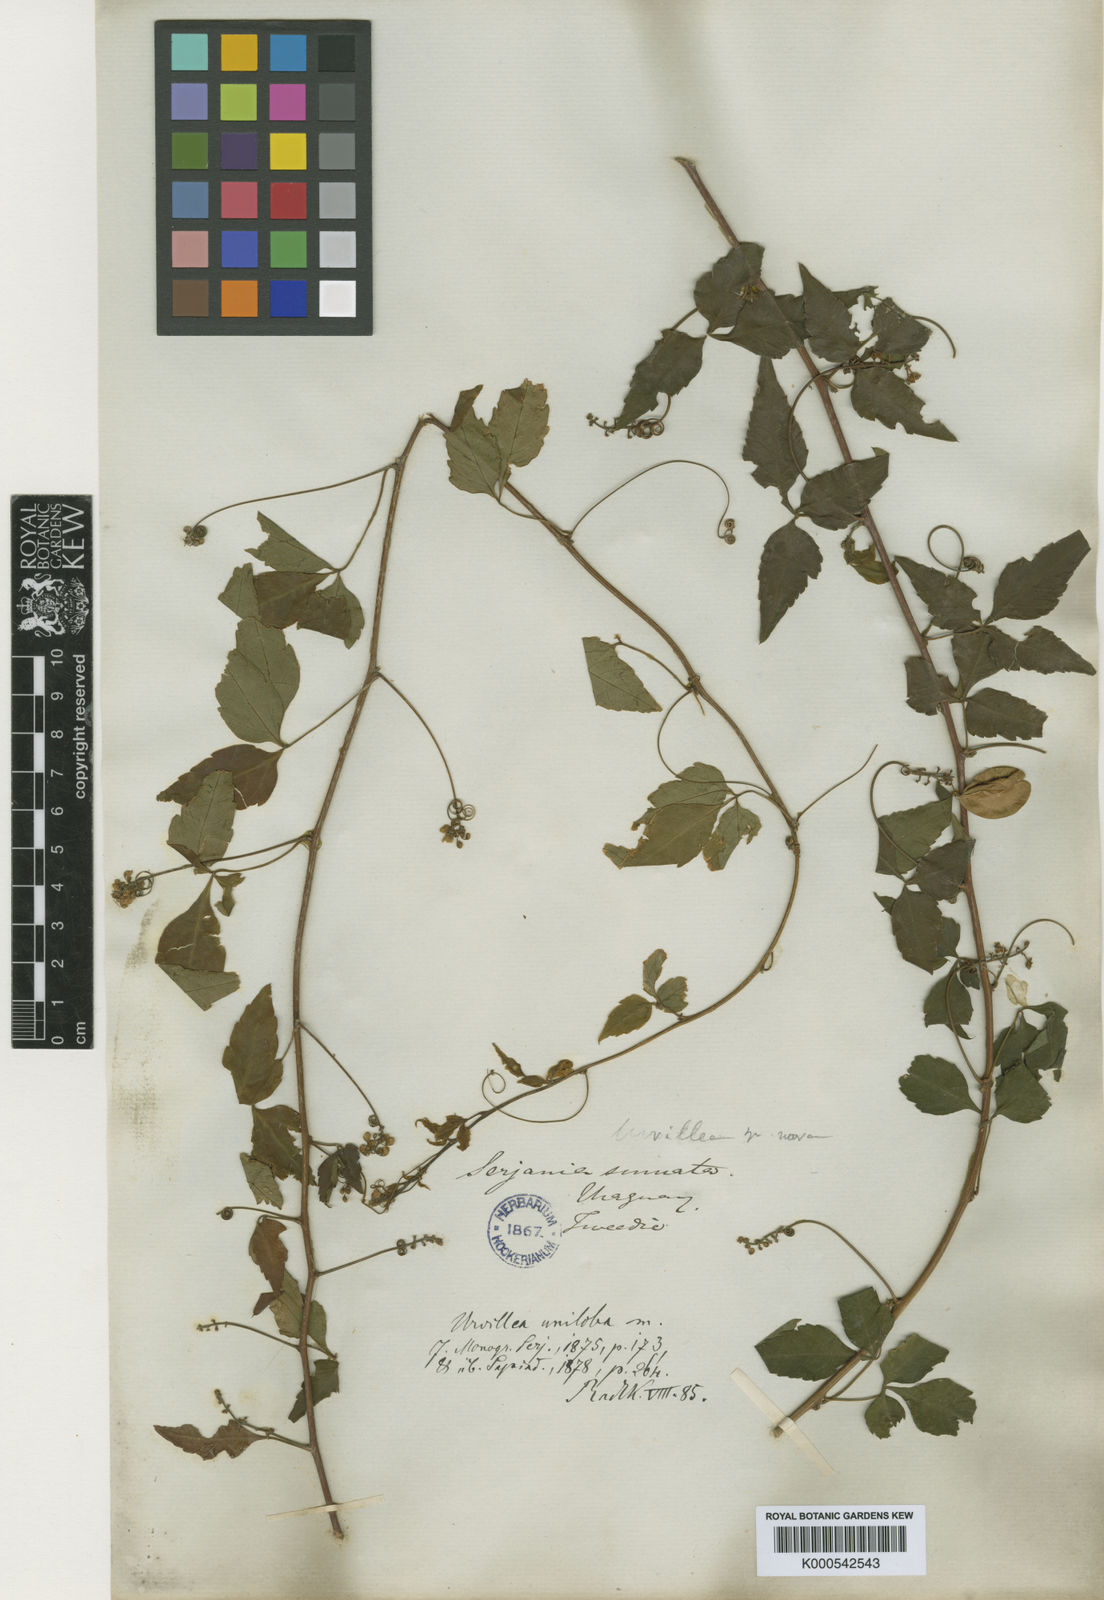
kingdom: Plantae
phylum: Tracheophyta
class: Magnoliopsida
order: Sapindales
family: Sapindaceae
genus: Urvillea
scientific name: Urvillea uniloba
